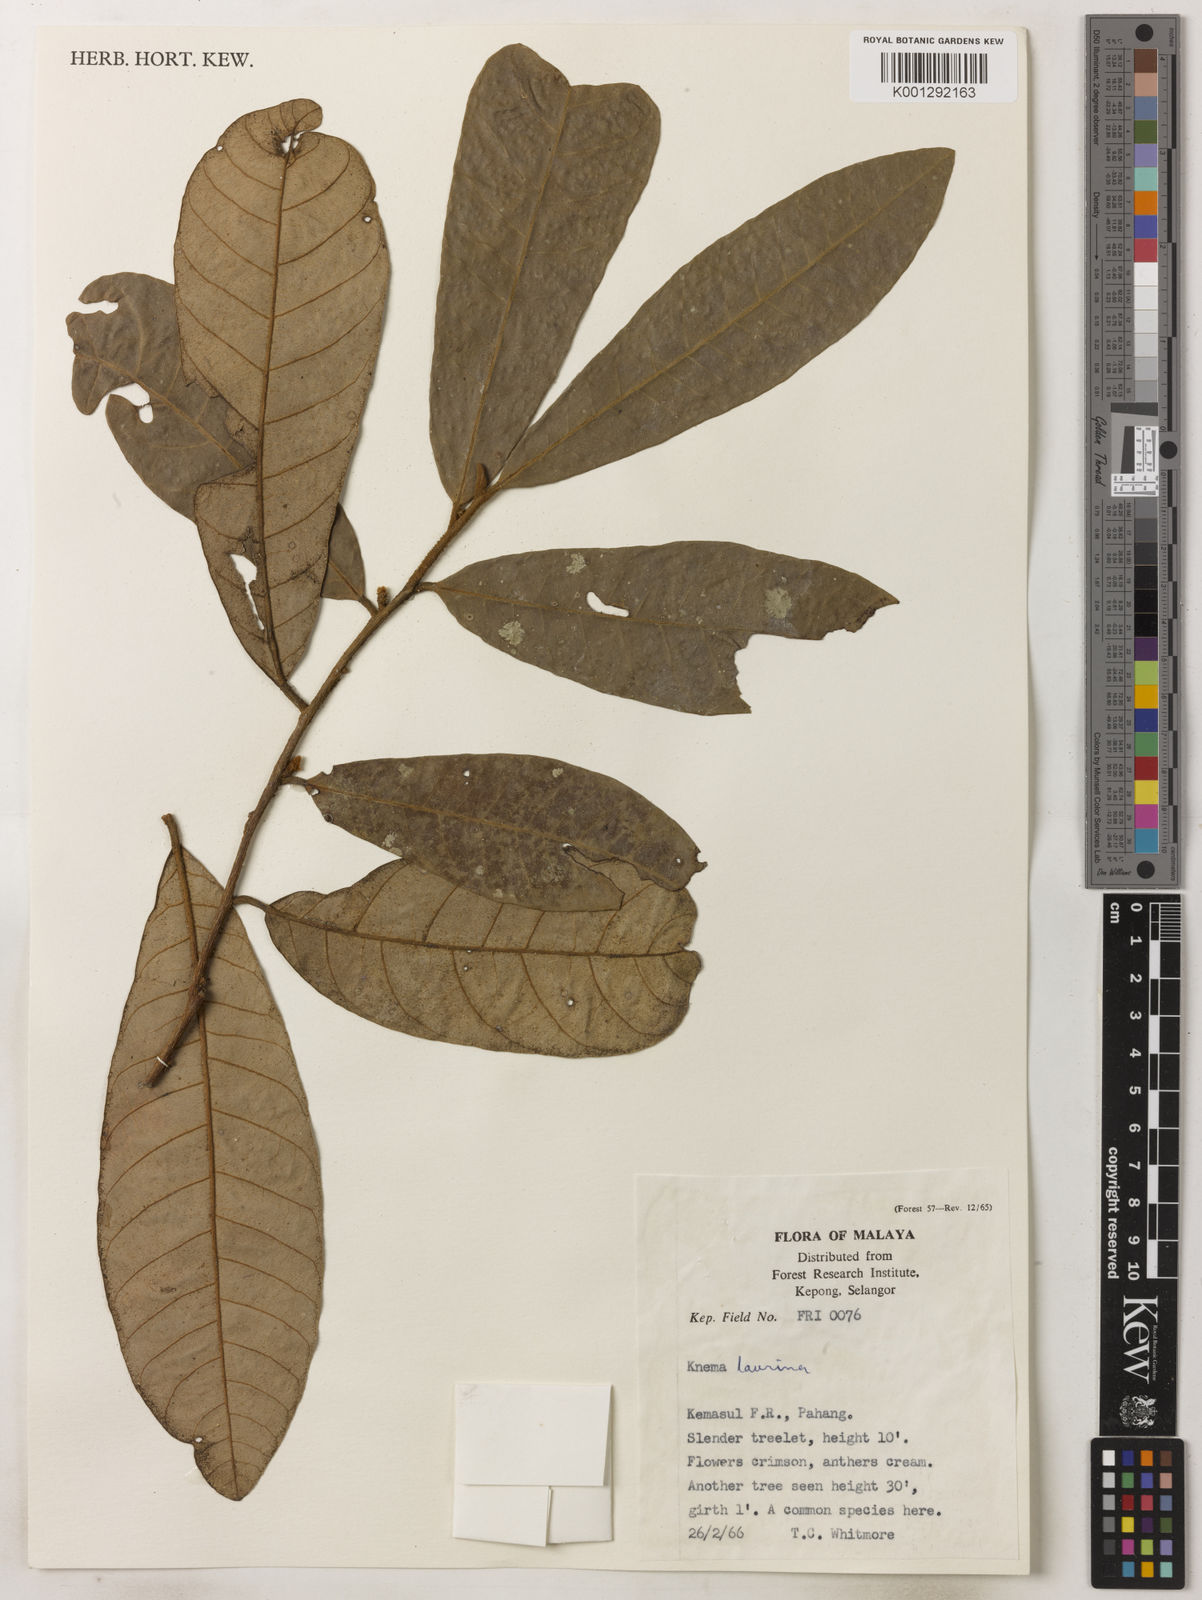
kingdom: Plantae
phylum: Tracheophyta
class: Magnoliopsida
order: Magnoliales
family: Myristicaceae
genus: Knema
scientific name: Knema laurina
